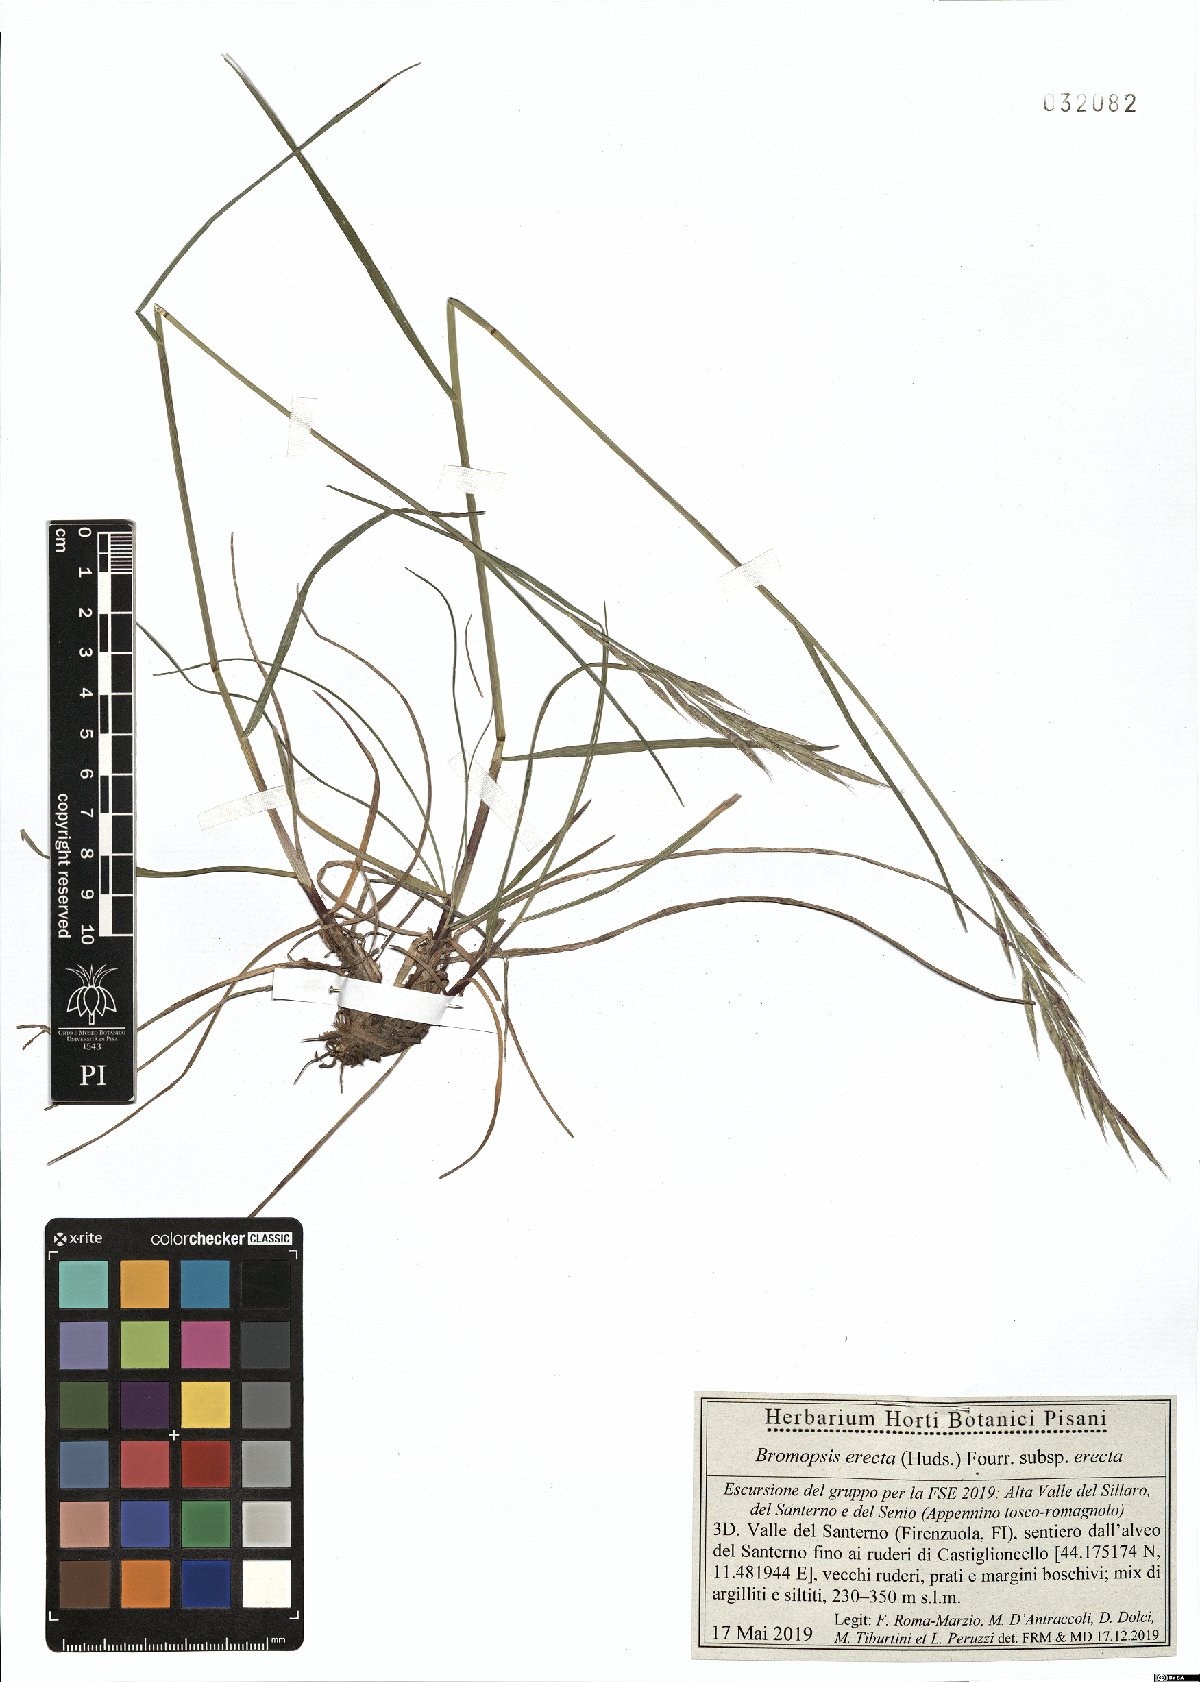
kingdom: Plantae
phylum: Tracheophyta
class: Liliopsida
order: Poales
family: Poaceae
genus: Bromus
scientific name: Bromus erectus
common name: Erect brome
